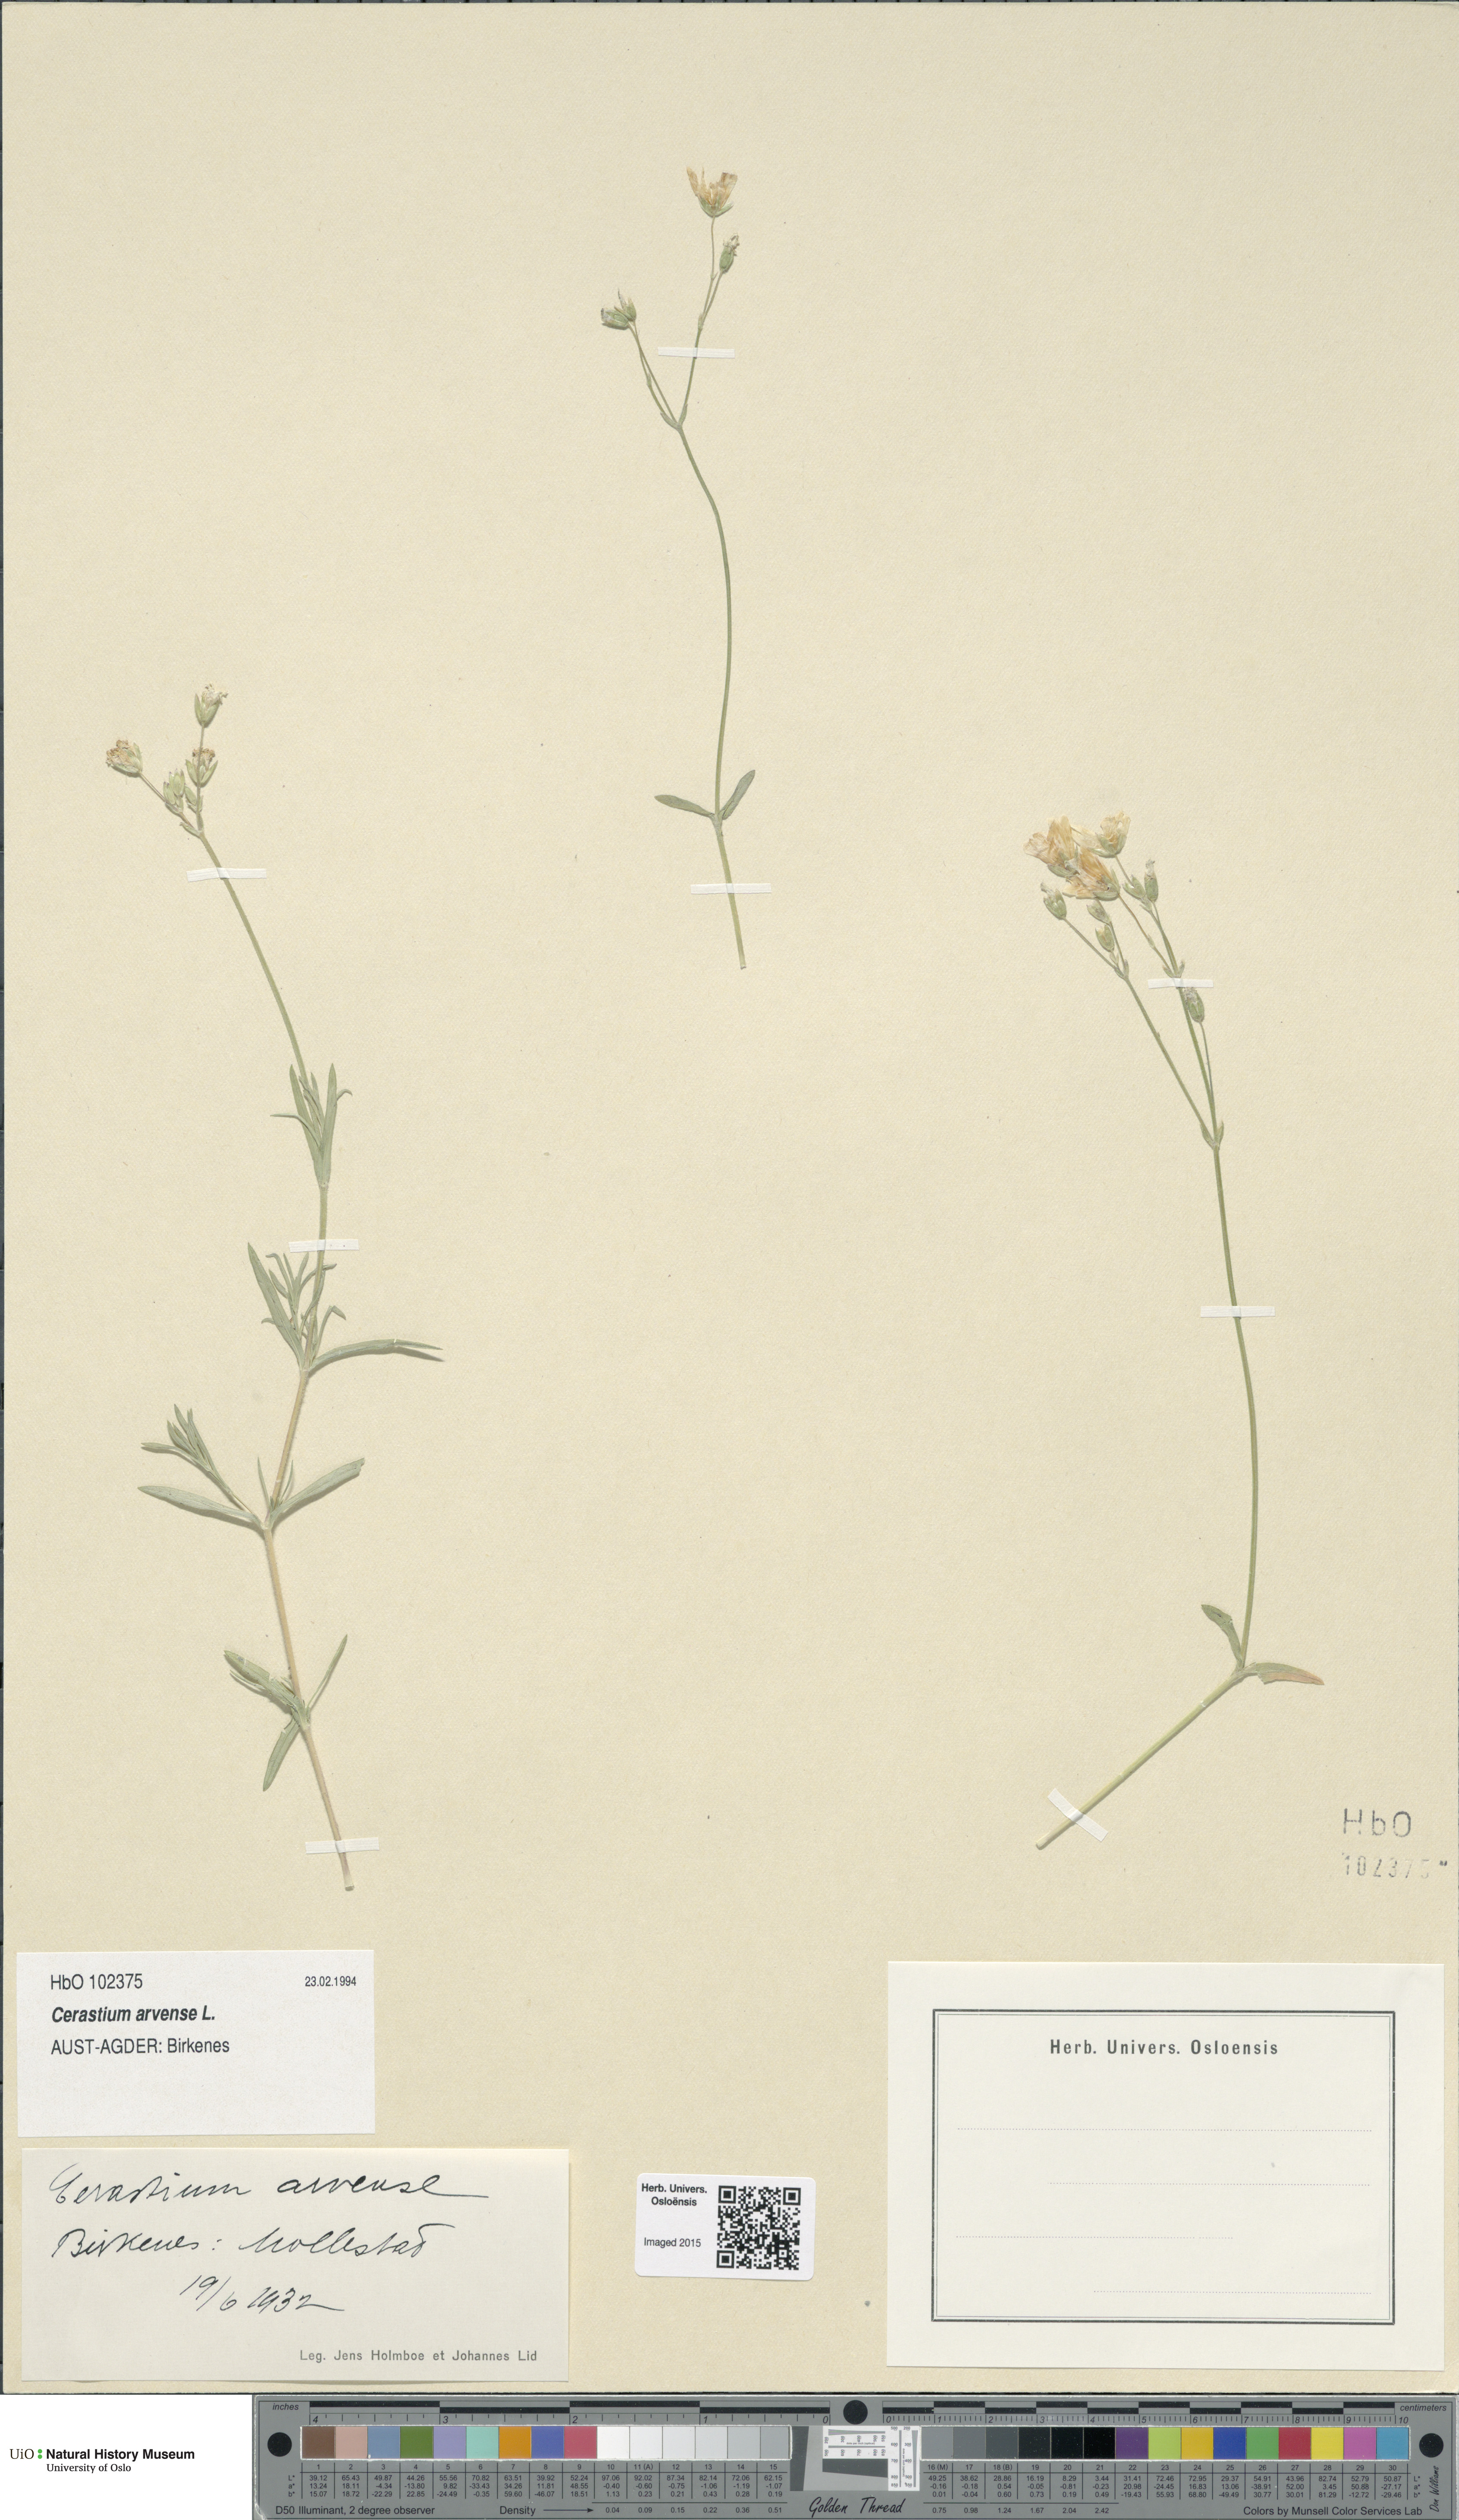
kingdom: Plantae
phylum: Tracheophyta
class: Magnoliopsida
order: Caryophyllales
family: Caryophyllaceae
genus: Cerastium
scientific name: Cerastium arvense
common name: Field mouse-ear
